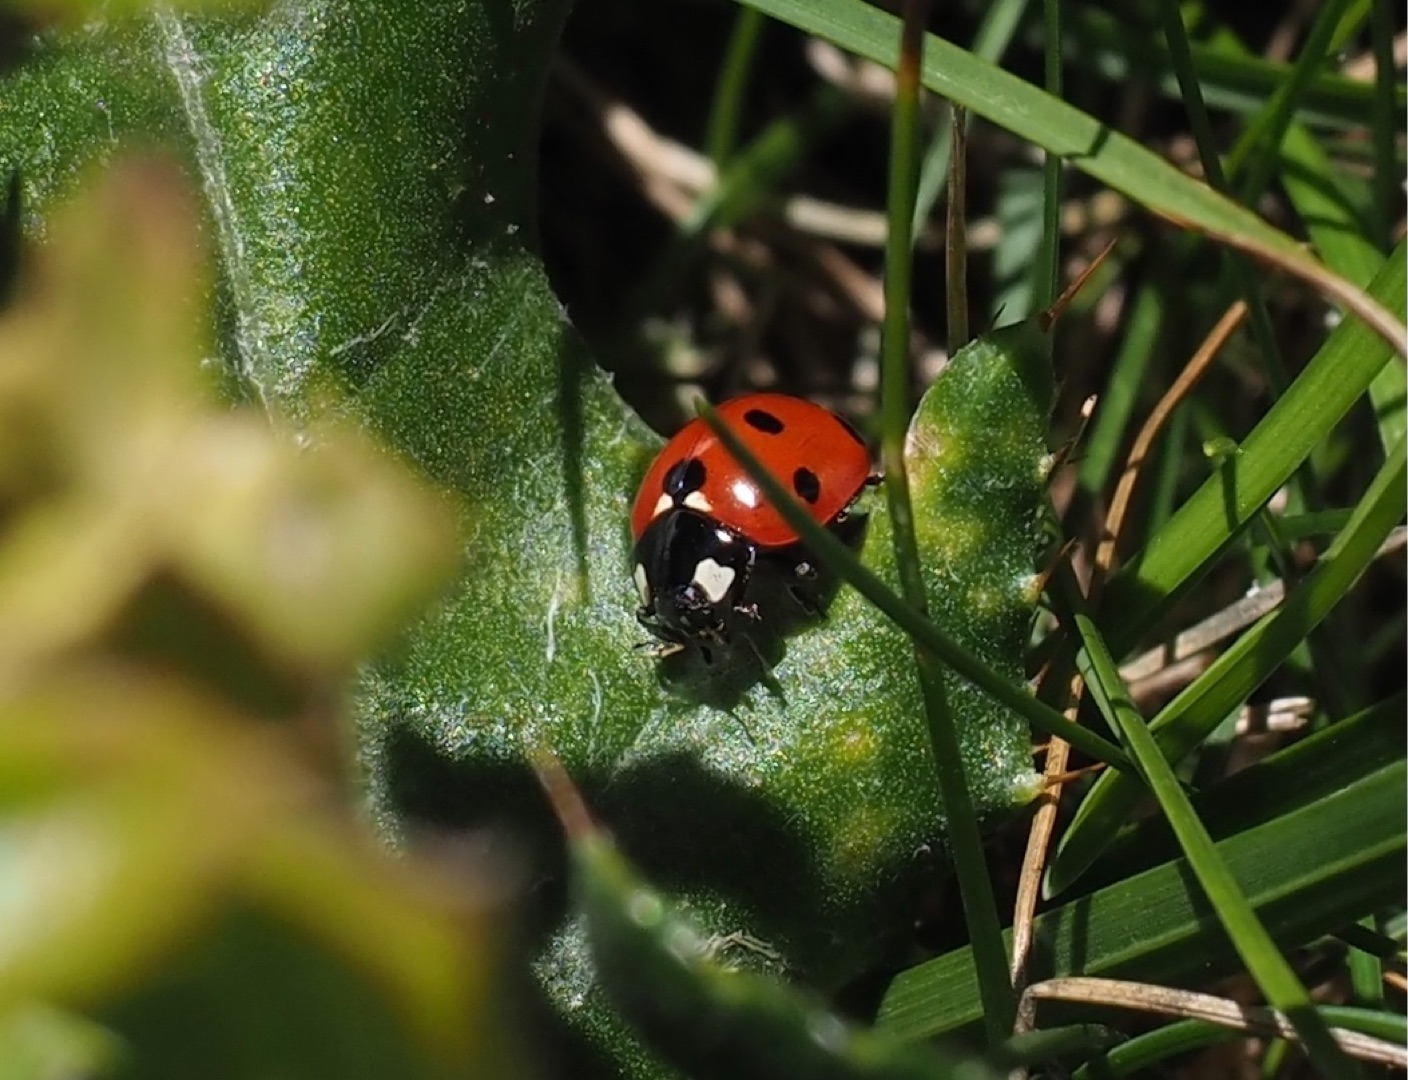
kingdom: Animalia
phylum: Arthropoda
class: Insecta
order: Coleoptera
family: Coccinellidae
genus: Coccinella
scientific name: Coccinella septempunctata
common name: Syvplettet mariehøne
